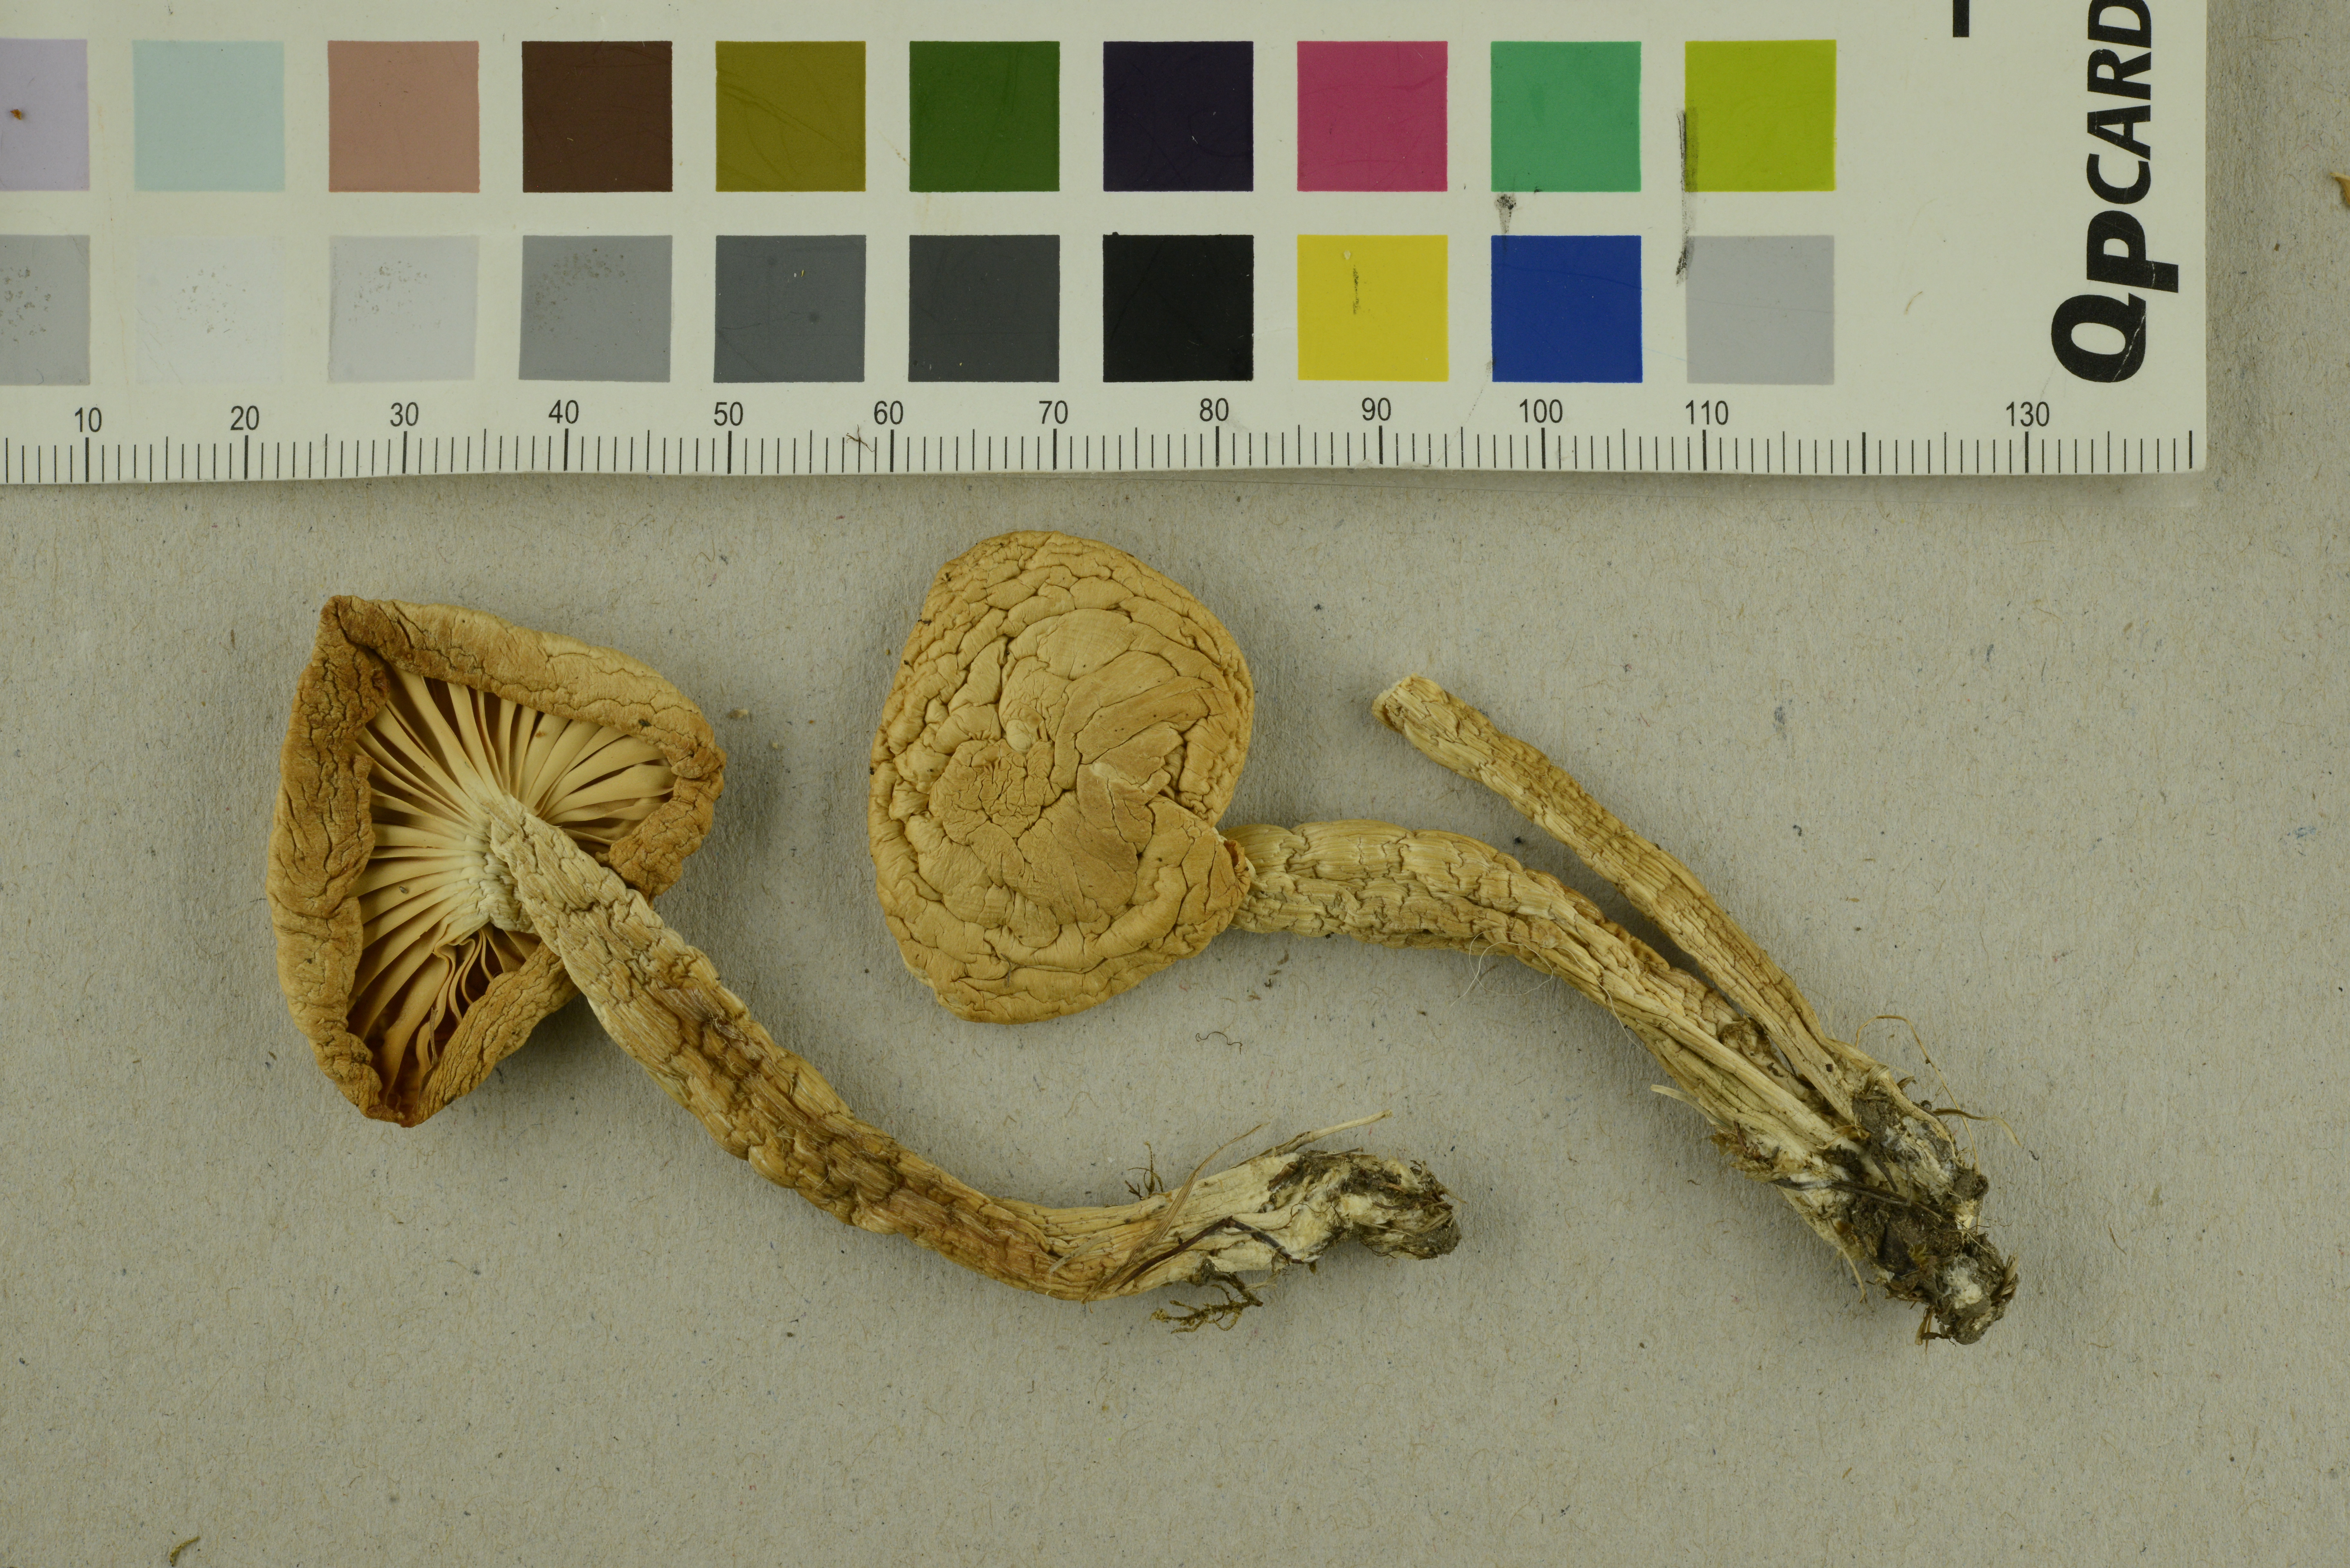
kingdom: Fungi
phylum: Basidiomycota
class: Agaricomycetes
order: Agaricales
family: Hygrophoraceae
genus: Hygrophorus
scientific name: Hygrophorus nemoreus
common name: Oak woodwax
